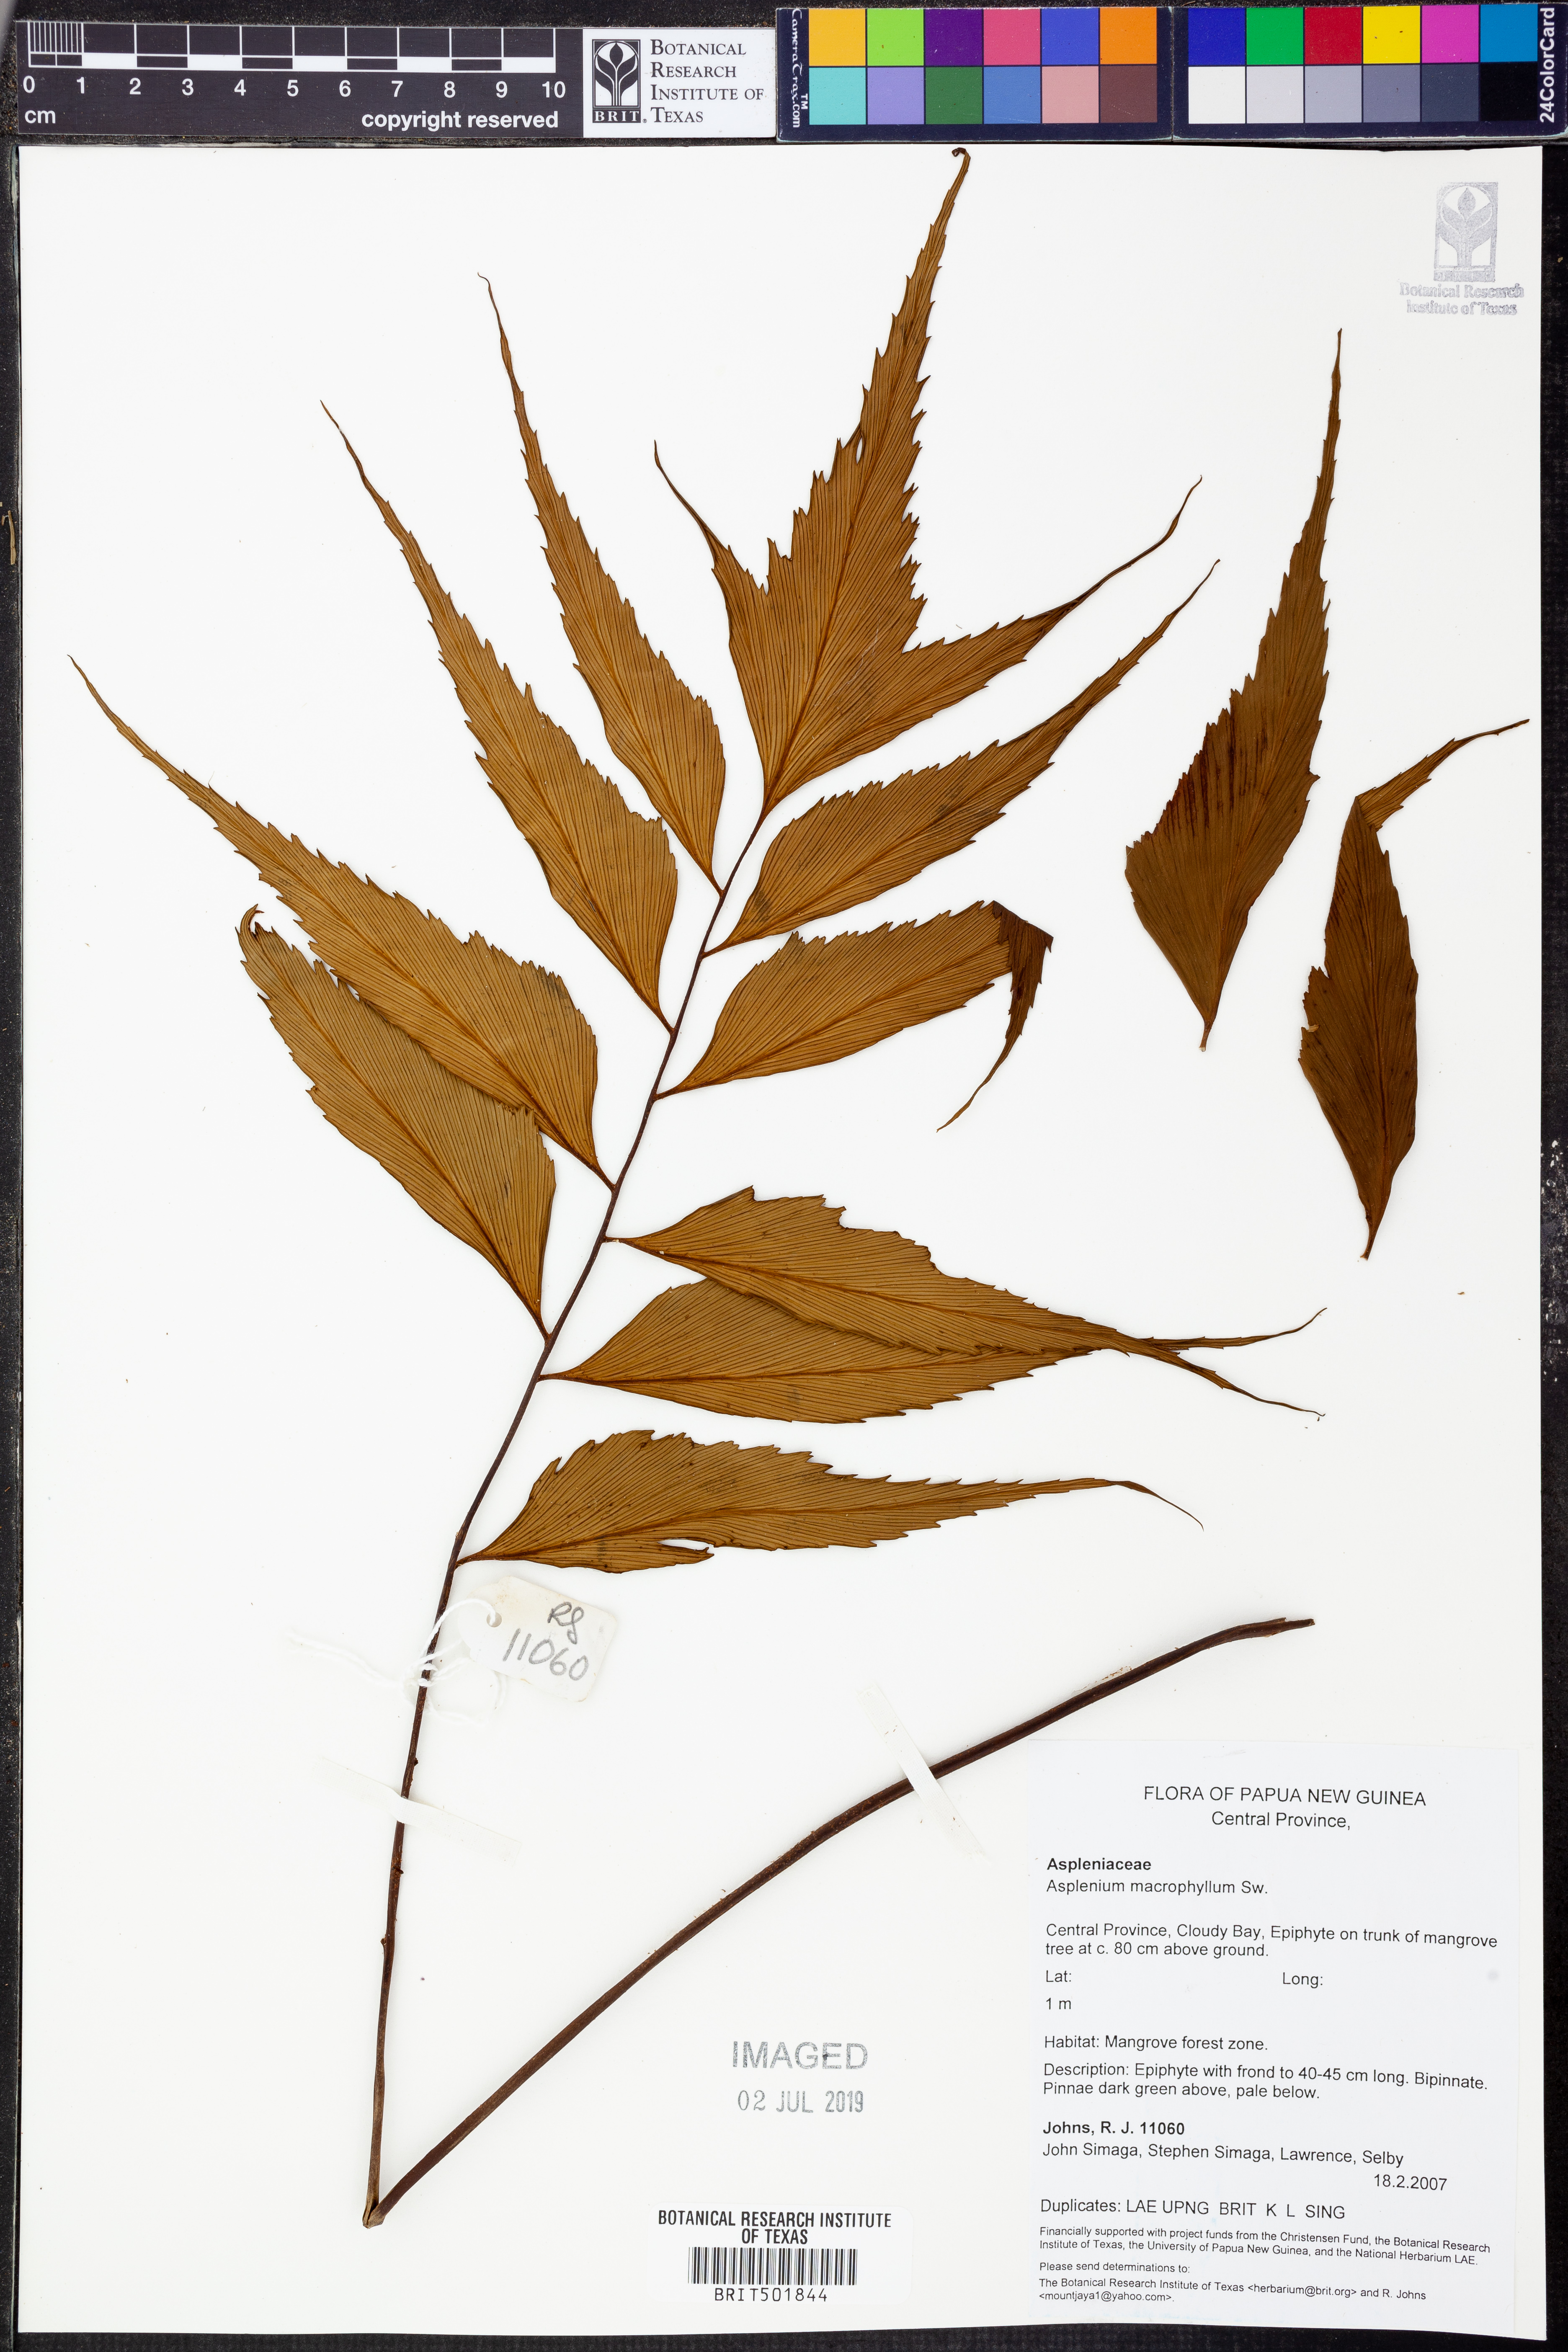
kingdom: Plantae
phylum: Tracheophyta
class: Polypodiopsida
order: Polypodiales
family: Aspleniaceae
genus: Asplenium
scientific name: Asplenium macrophyllum
